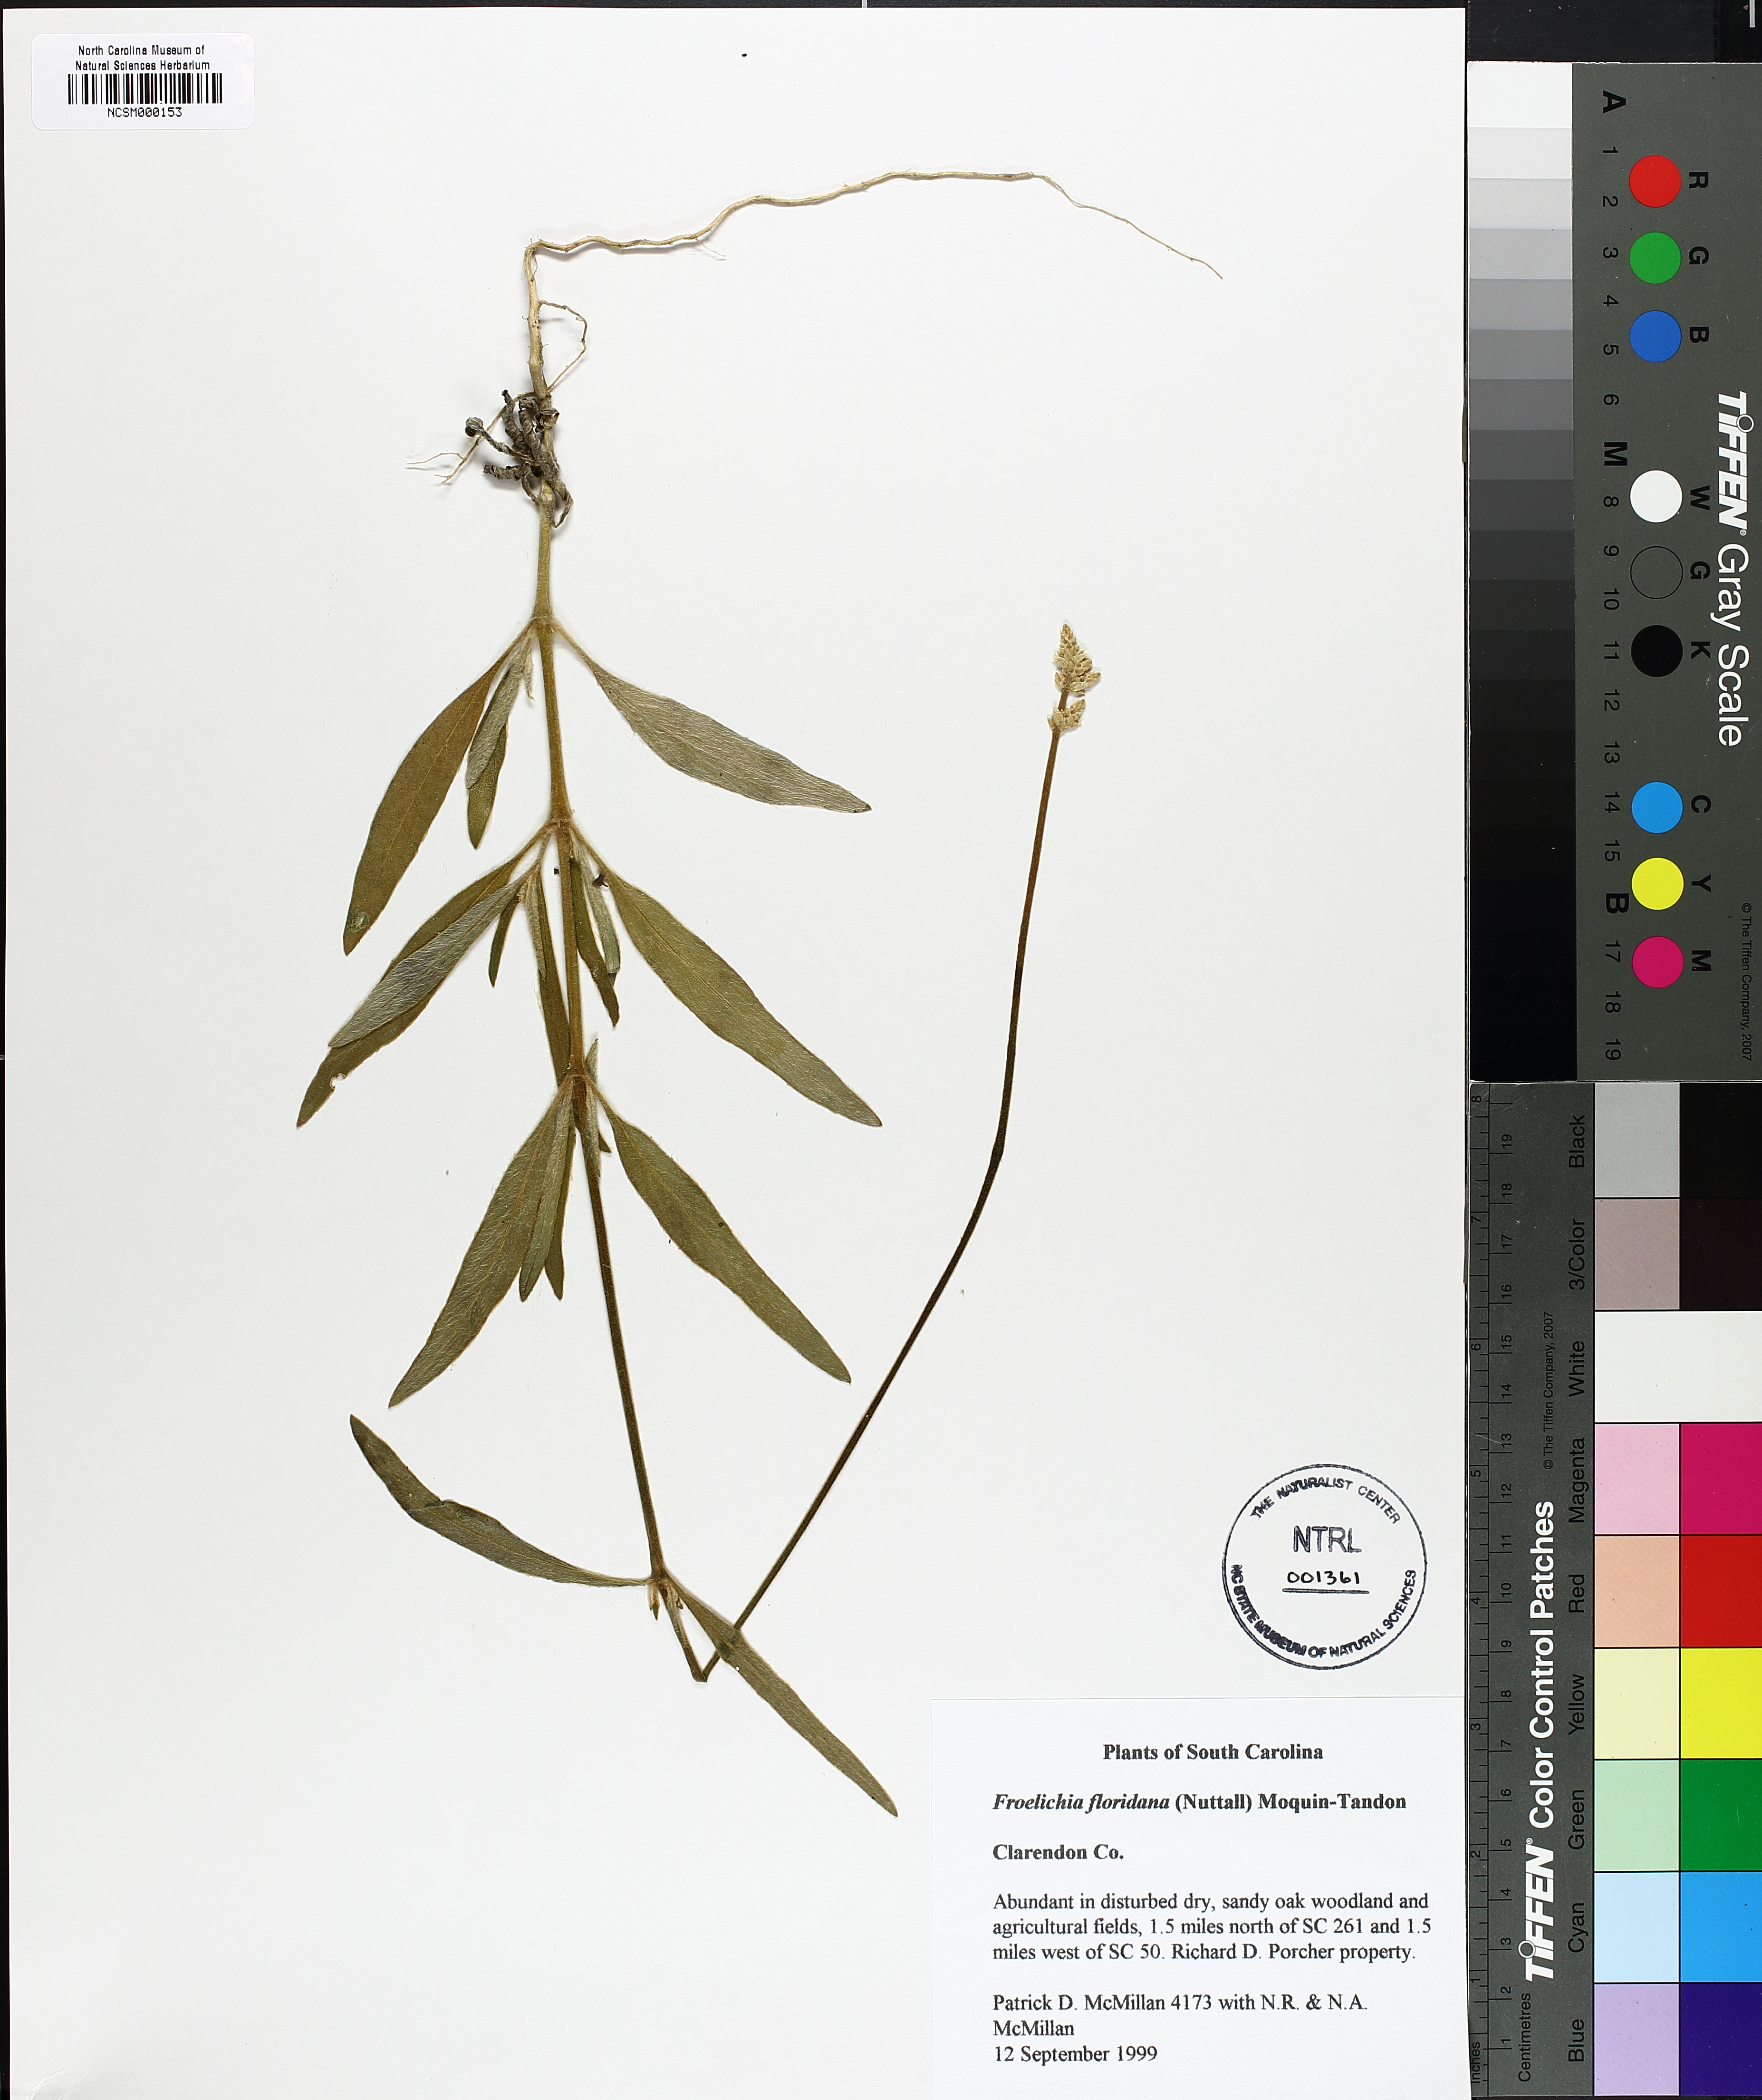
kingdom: Plantae
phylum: Tracheophyta
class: Magnoliopsida
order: Caryophyllales
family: Amaranthaceae
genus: Froelichia
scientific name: Froelichia floridana
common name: Florida snake-cotton
